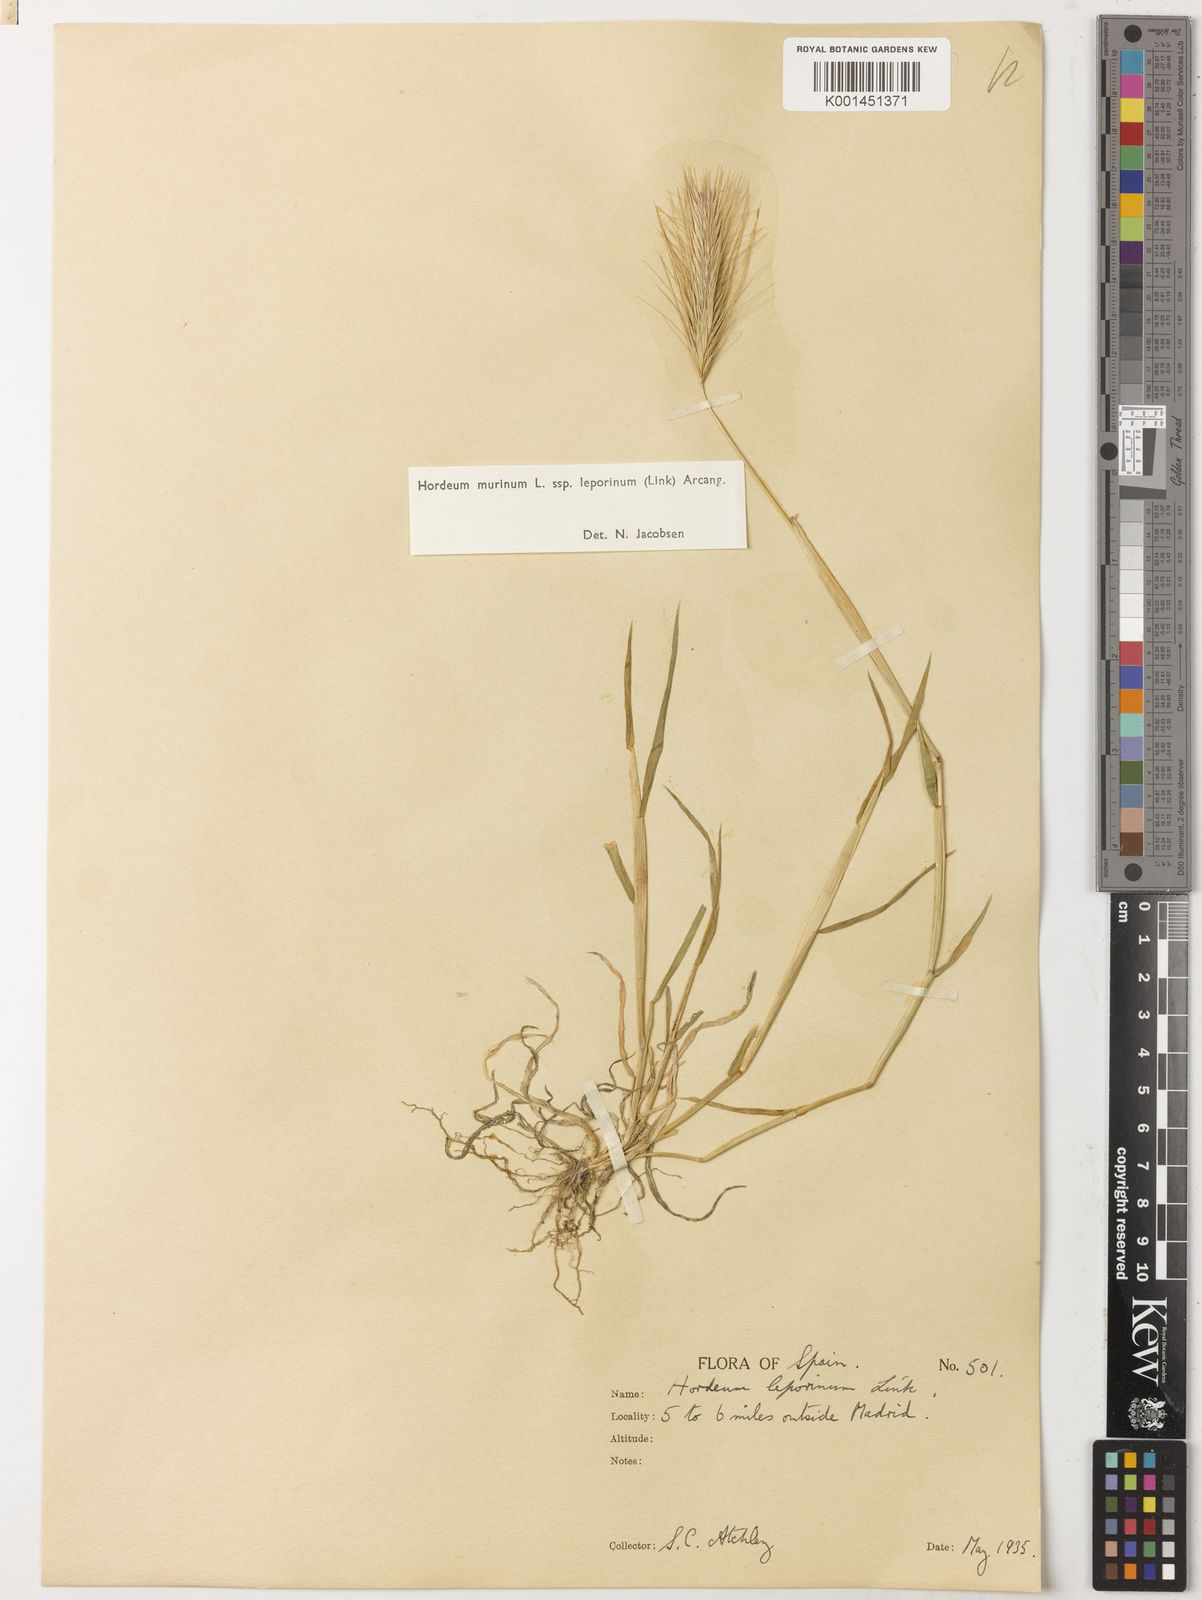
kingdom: Plantae
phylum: Tracheophyta
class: Liliopsida
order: Poales
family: Poaceae
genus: Hordeum
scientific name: Hordeum murinum
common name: Wall barley
